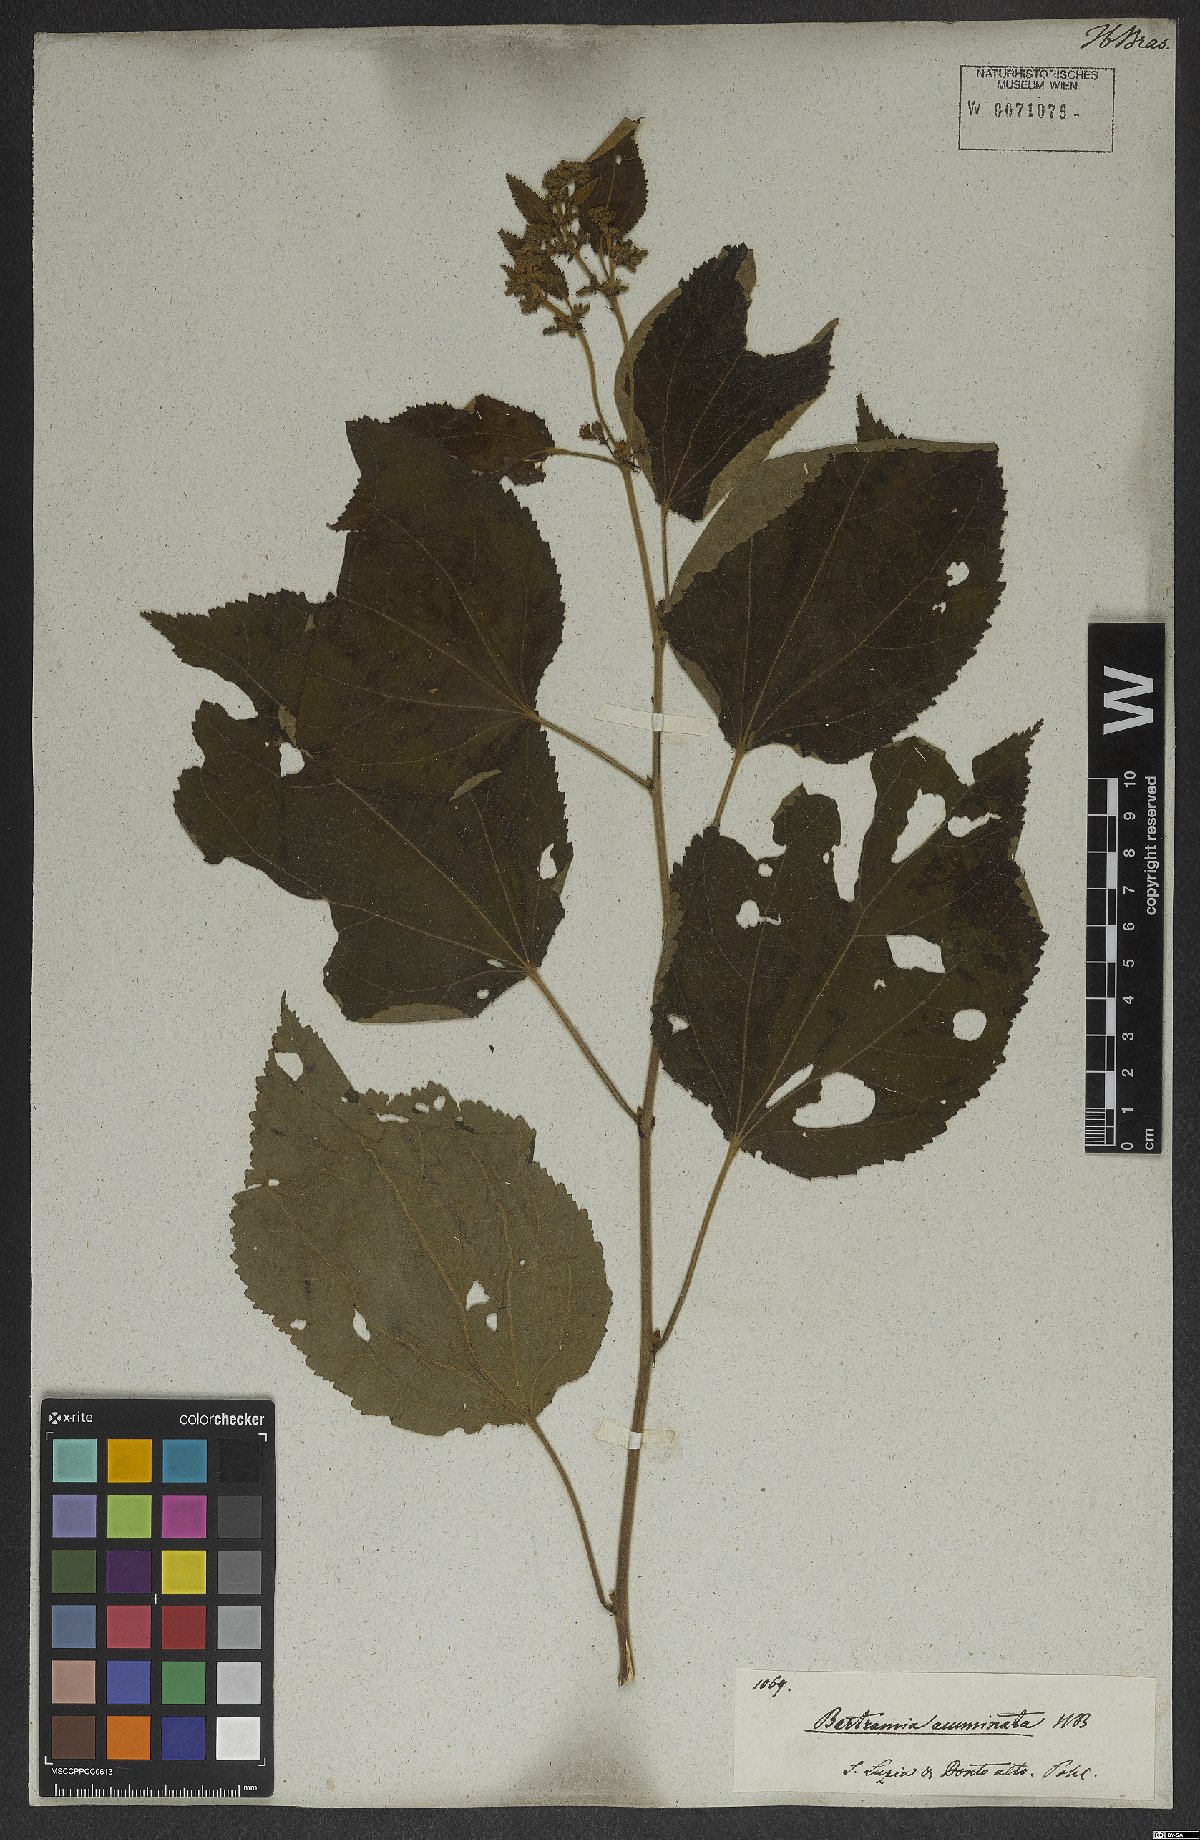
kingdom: Plantae
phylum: Tracheophyta
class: Magnoliopsida
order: Malvales
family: Malvaceae
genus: Triumfetta
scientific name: Triumfetta mollissima
